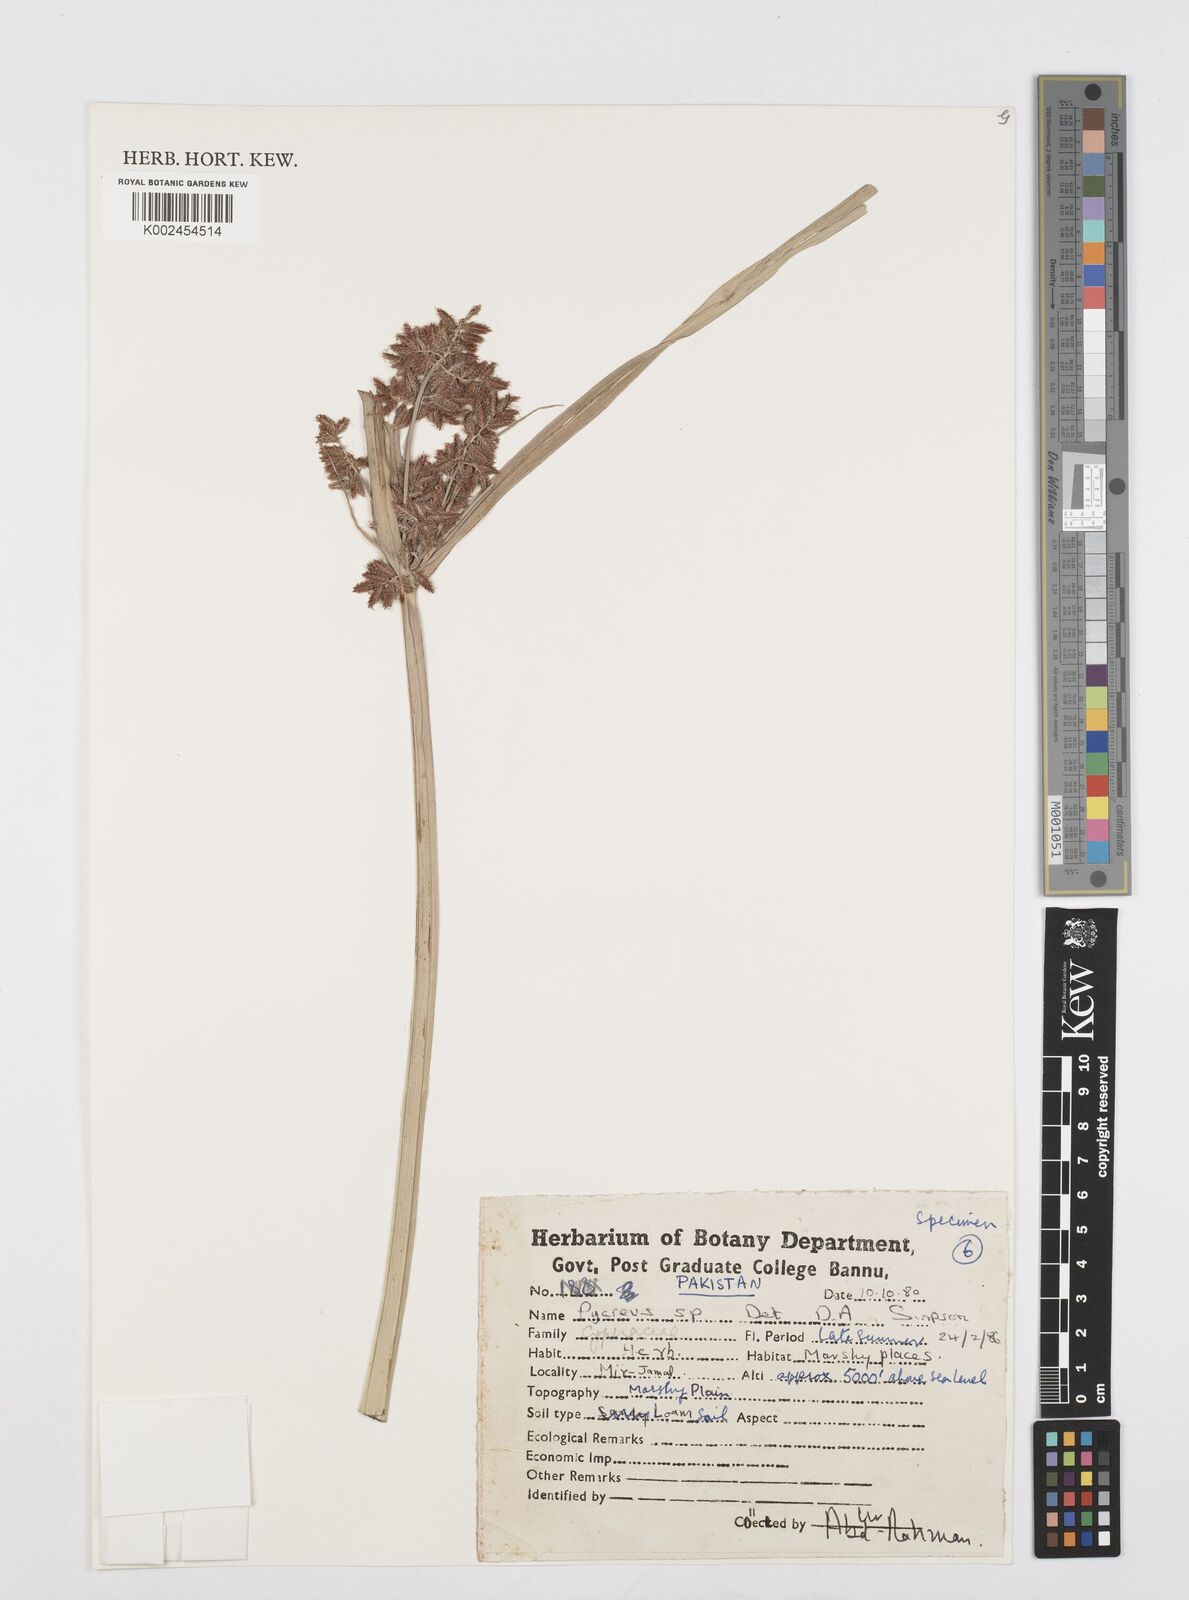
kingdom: Plantae
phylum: Tracheophyta
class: Liliopsida
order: Poales
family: Cyperaceae
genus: Cyperus
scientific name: Cyperus
